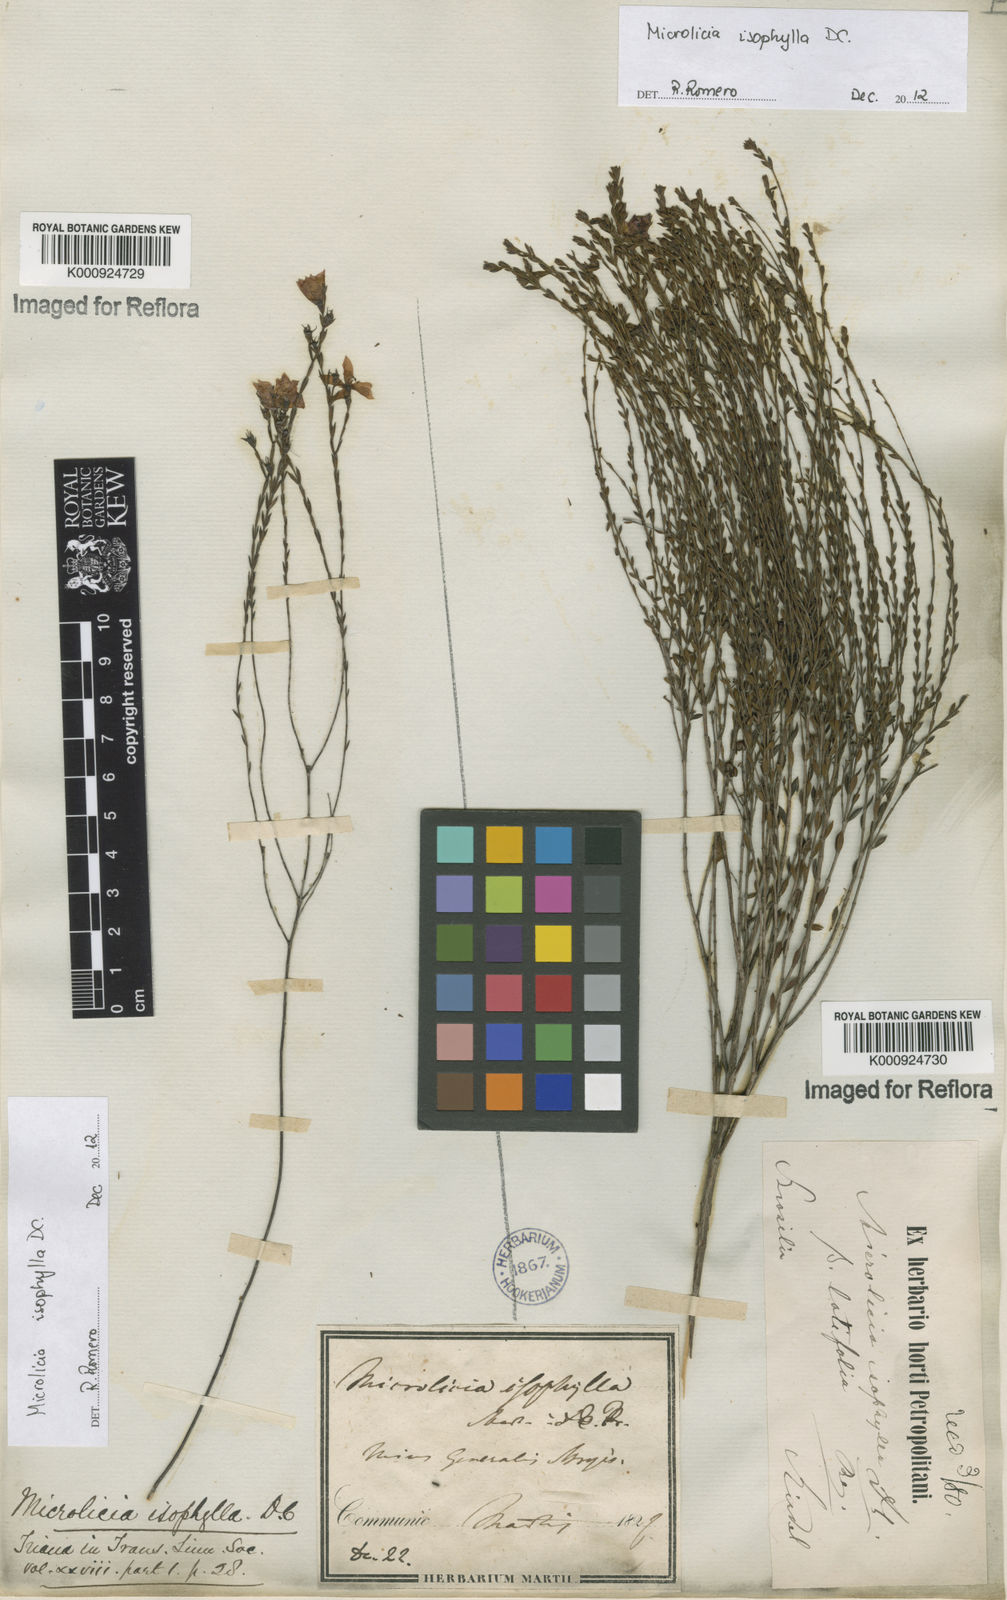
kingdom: Plantae
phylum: Tracheophyta
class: Magnoliopsida
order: Myrtales
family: Melastomataceae
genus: Microlicia
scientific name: Microlicia isophylla
